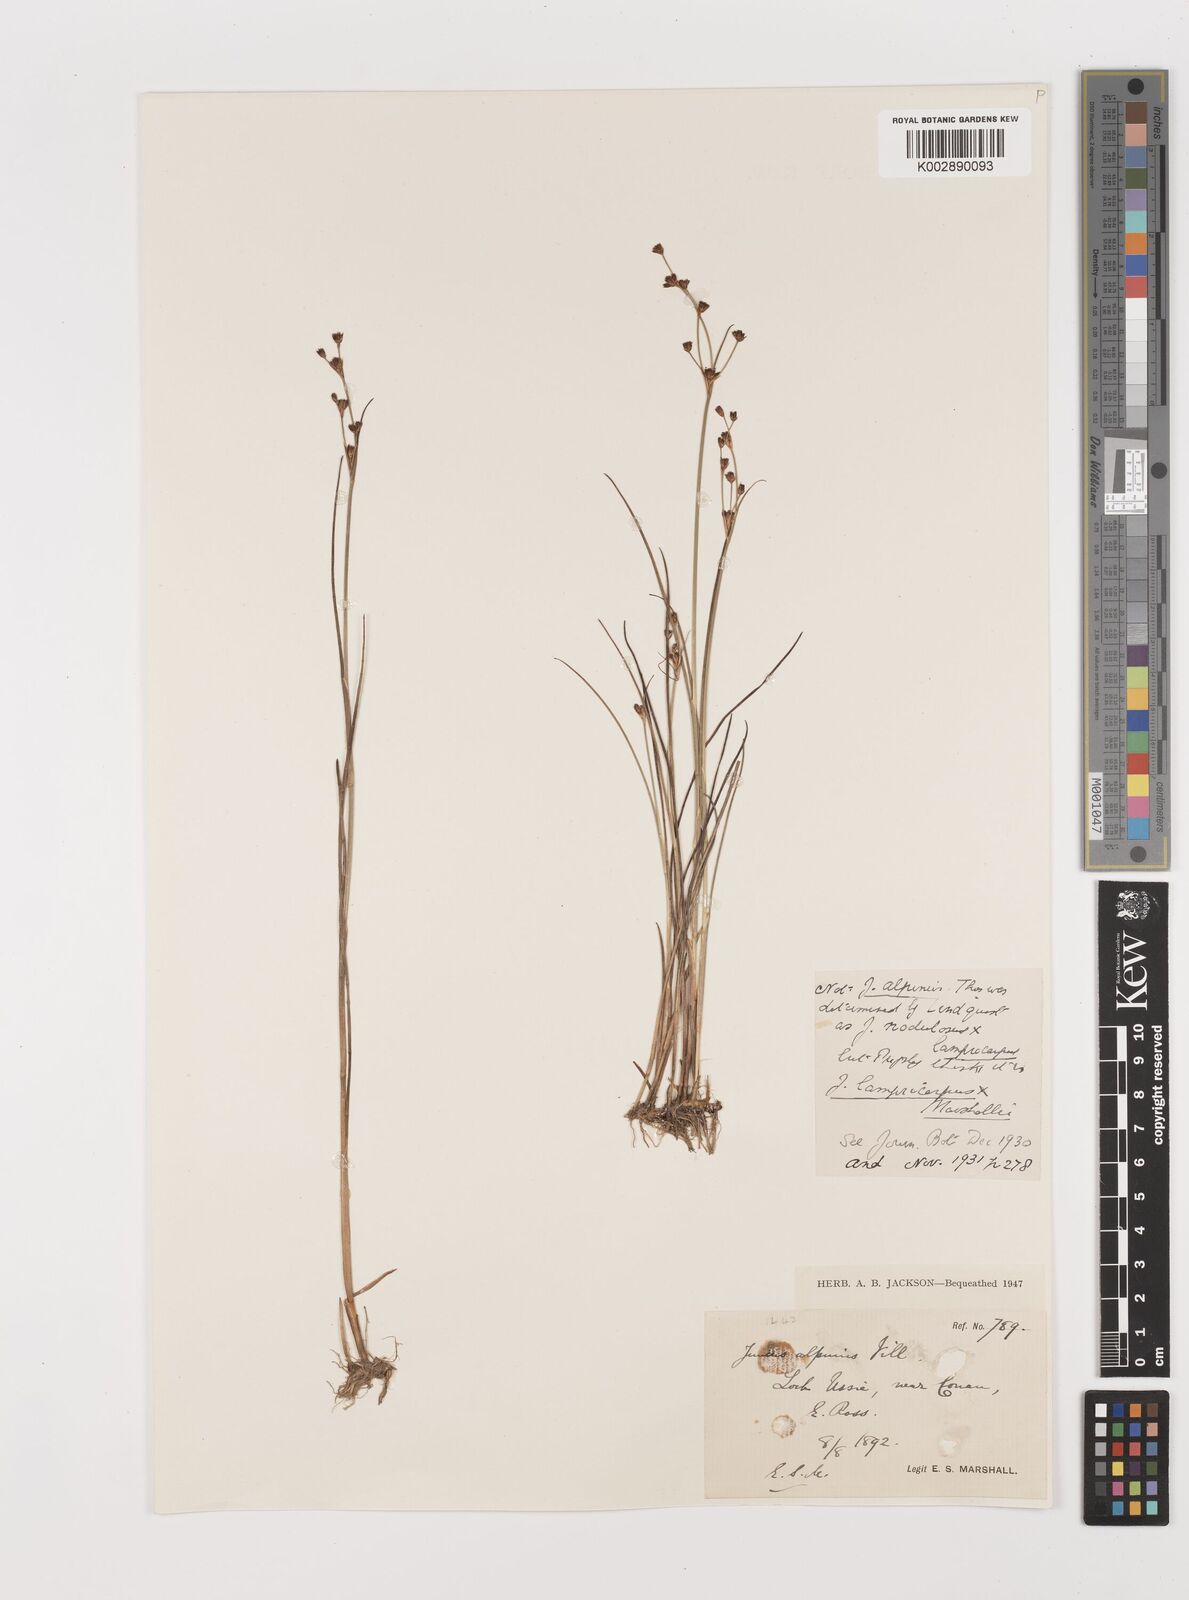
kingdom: Plantae
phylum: Tracheophyta
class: Liliopsida
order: Poales
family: Juncaceae
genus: Juncus
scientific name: Juncus articulatus
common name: Jointed rush
